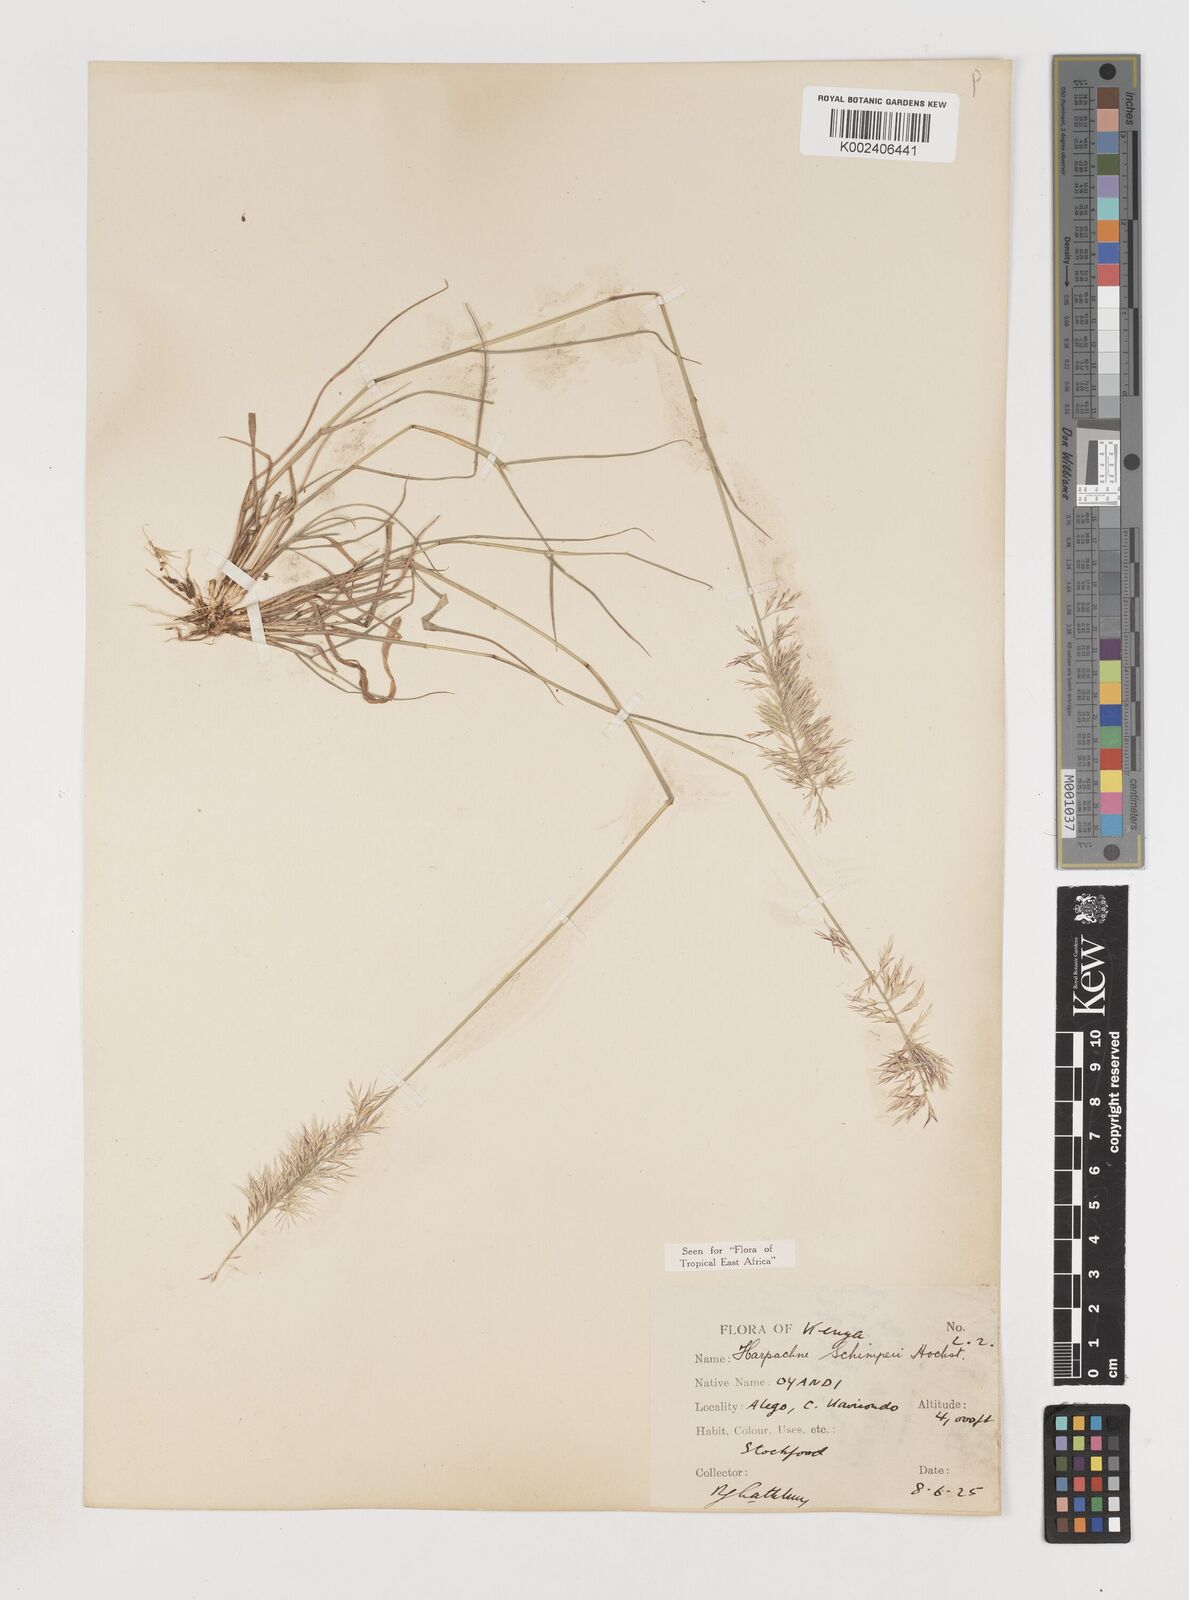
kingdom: Plantae
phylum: Tracheophyta
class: Liliopsida
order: Poales
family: Poaceae
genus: Harpachne
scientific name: Harpachne schimperi
